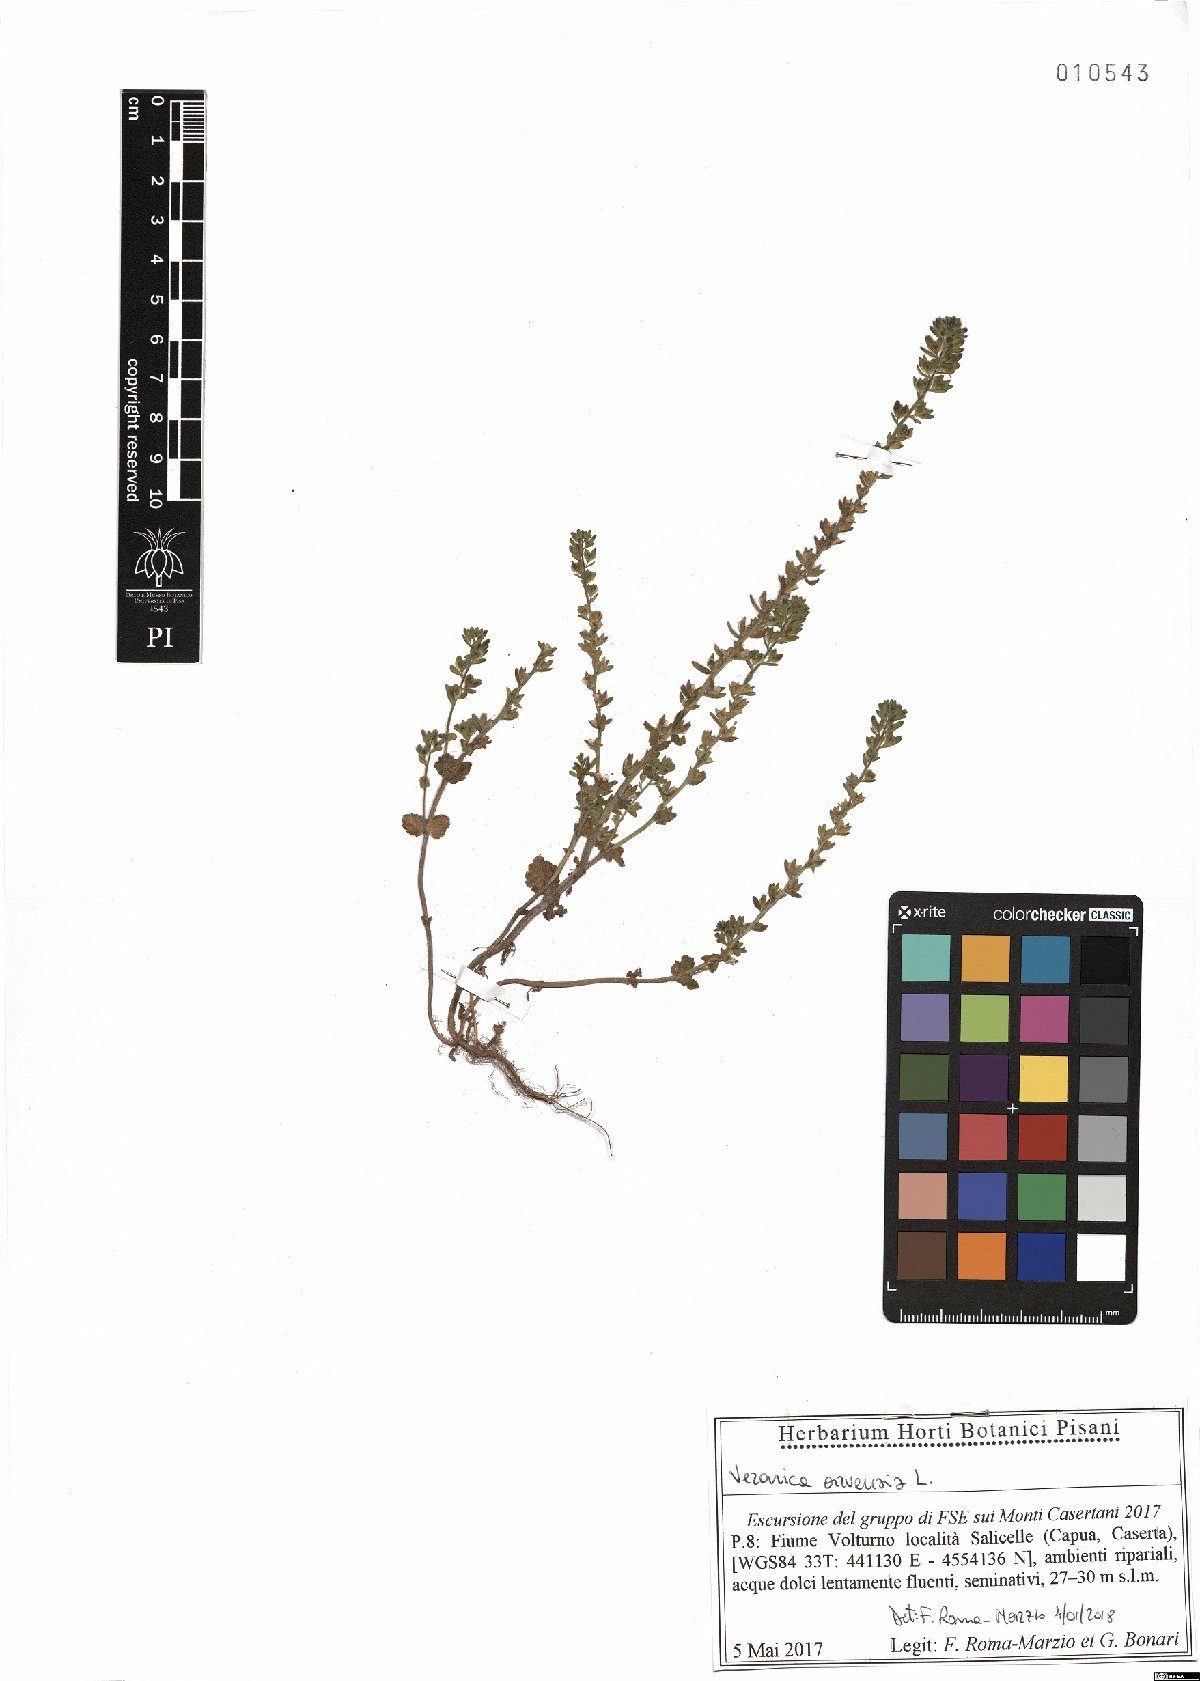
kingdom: Plantae
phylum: Tracheophyta
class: Magnoliopsida
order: Lamiales
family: Plantaginaceae
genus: Veronica
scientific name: Veronica arvensis
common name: Corn speedwell
